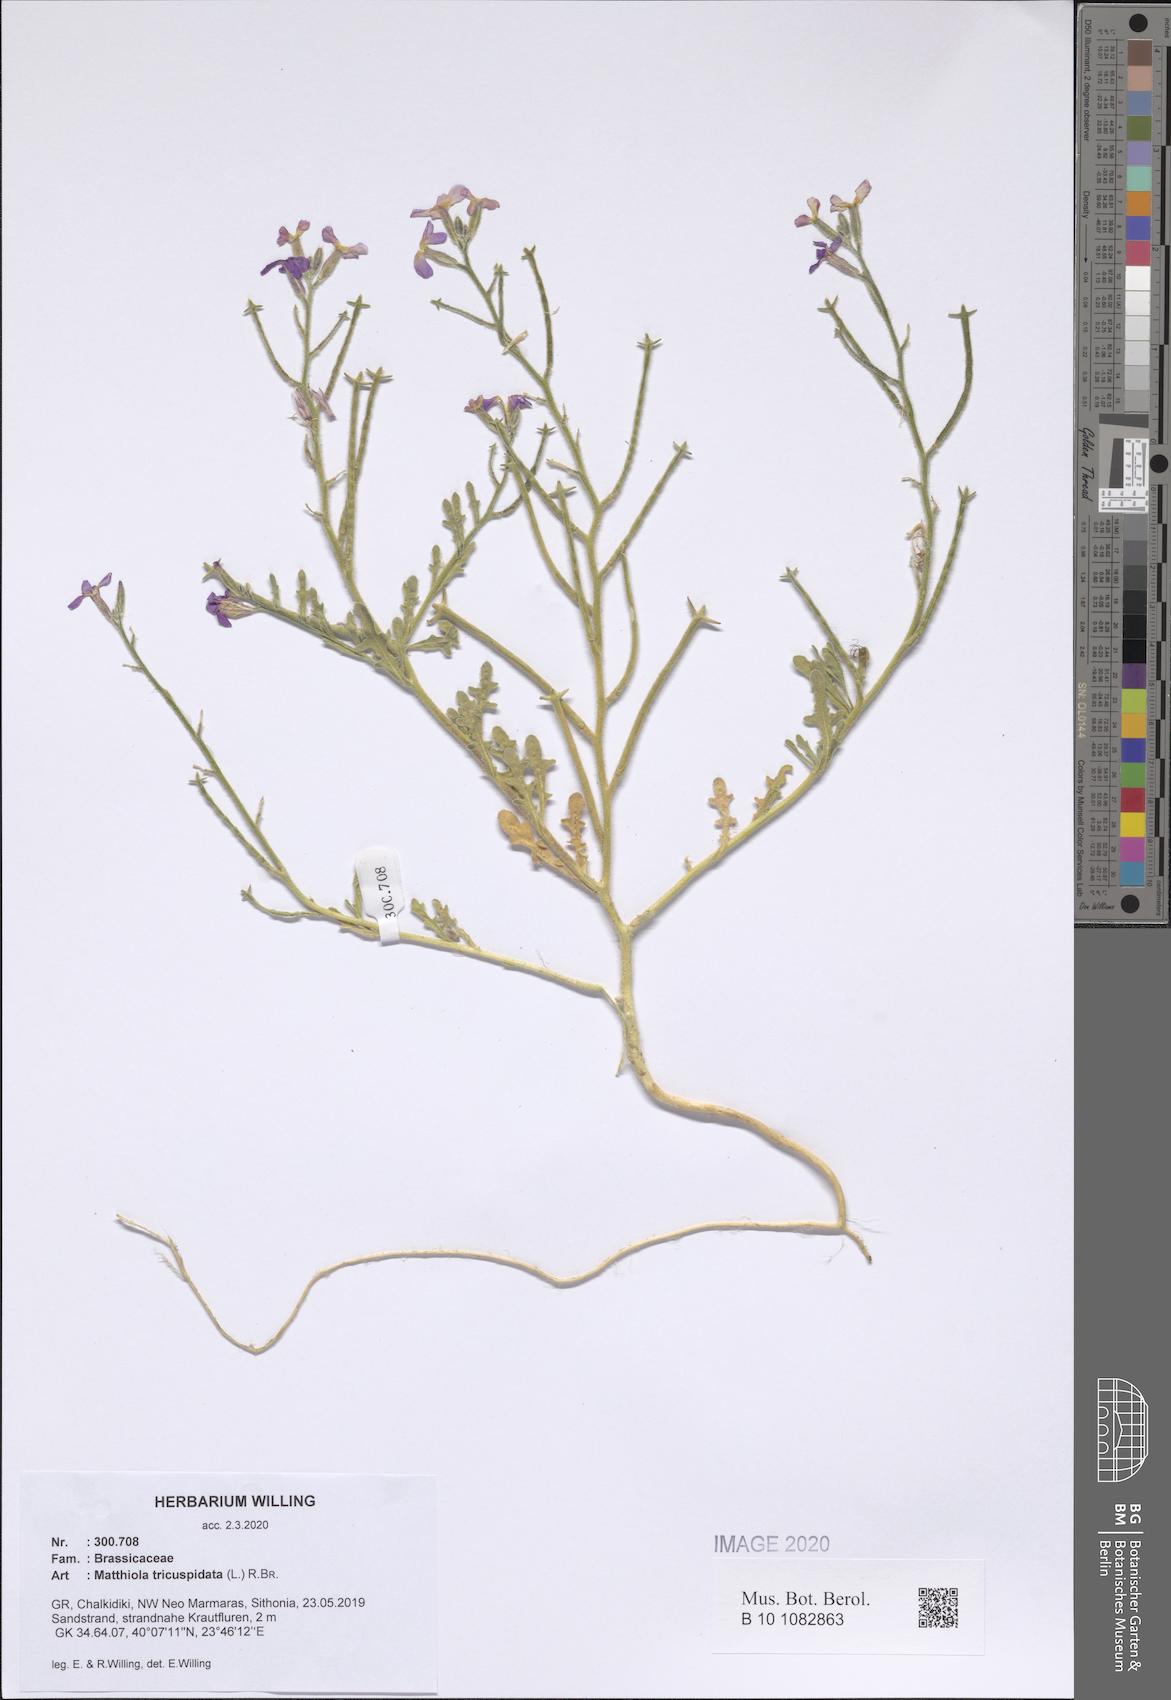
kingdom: Plantae
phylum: Tracheophyta
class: Magnoliopsida
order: Brassicales
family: Brassicaceae
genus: Matthiola
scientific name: Matthiola tricuspidata
